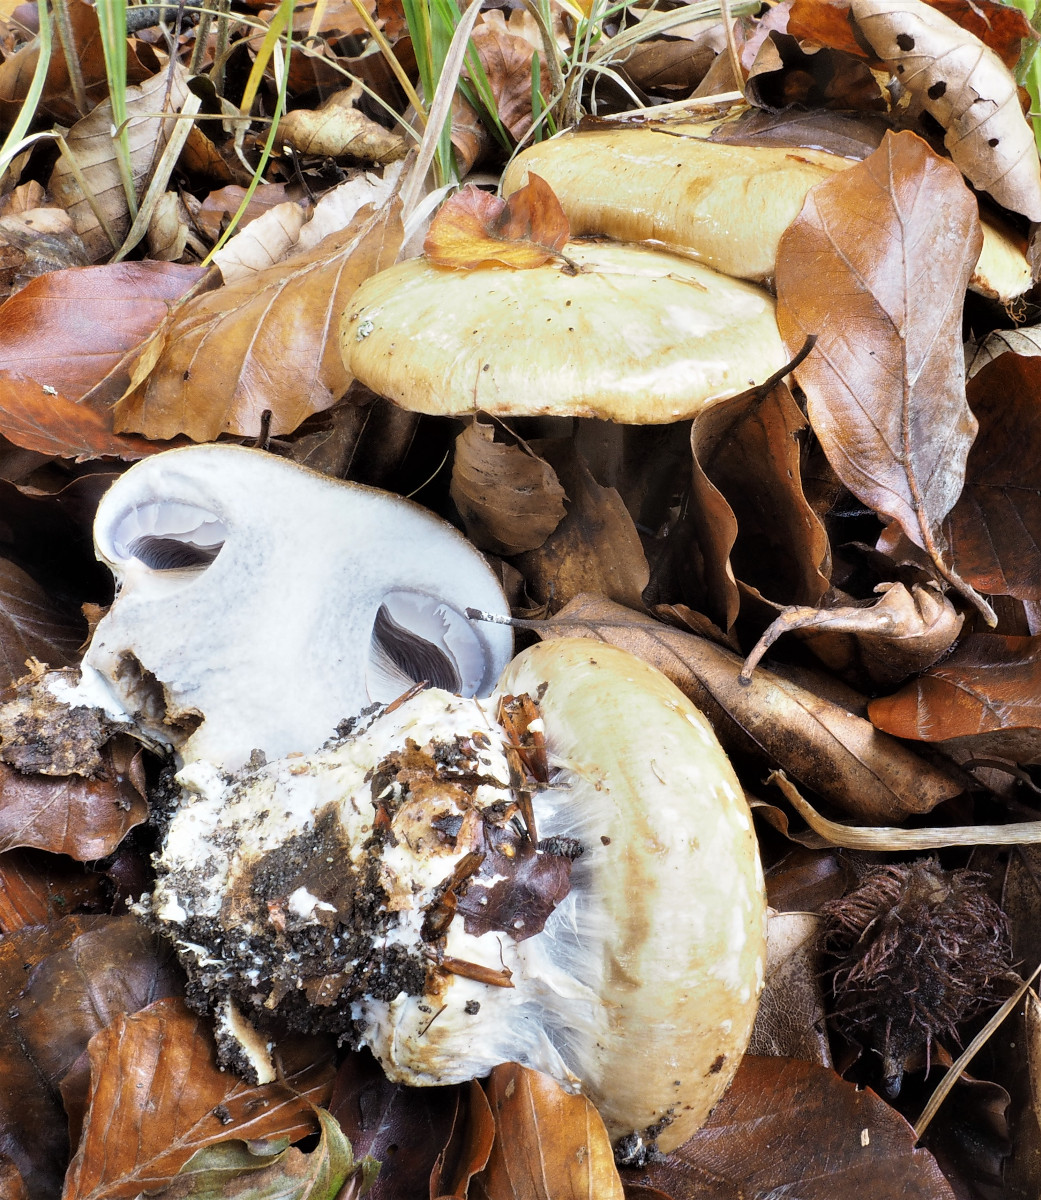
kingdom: Fungi
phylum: Basidiomycota
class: Agaricomycetes
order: Agaricales
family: Cortinariaceae
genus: Cortinarius
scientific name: Cortinarius anserinus
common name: bøge-slørhat
